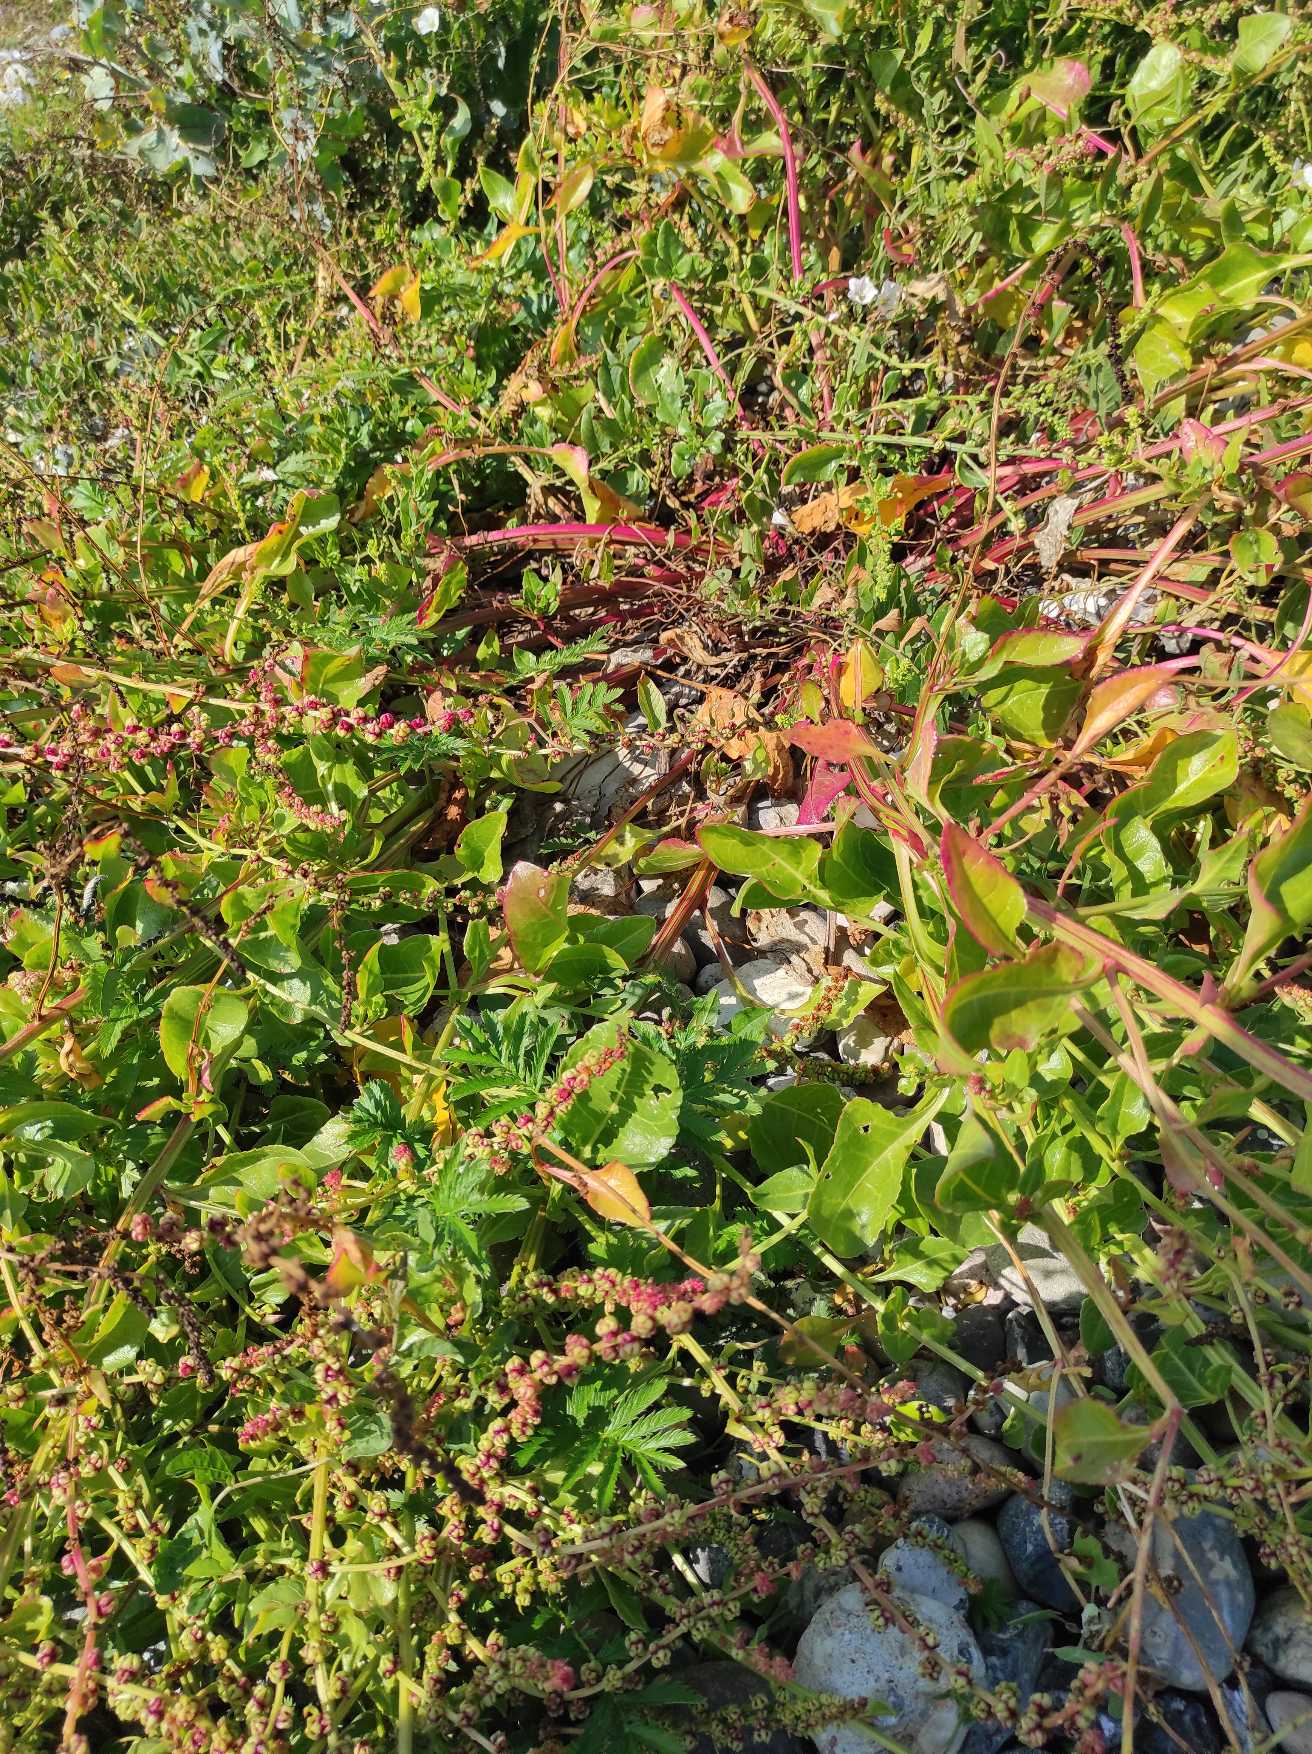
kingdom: Plantae
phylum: Tracheophyta
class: Magnoliopsida
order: Caryophyllales
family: Amaranthaceae
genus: Beta
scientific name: Beta maritima
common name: Strand-bede
